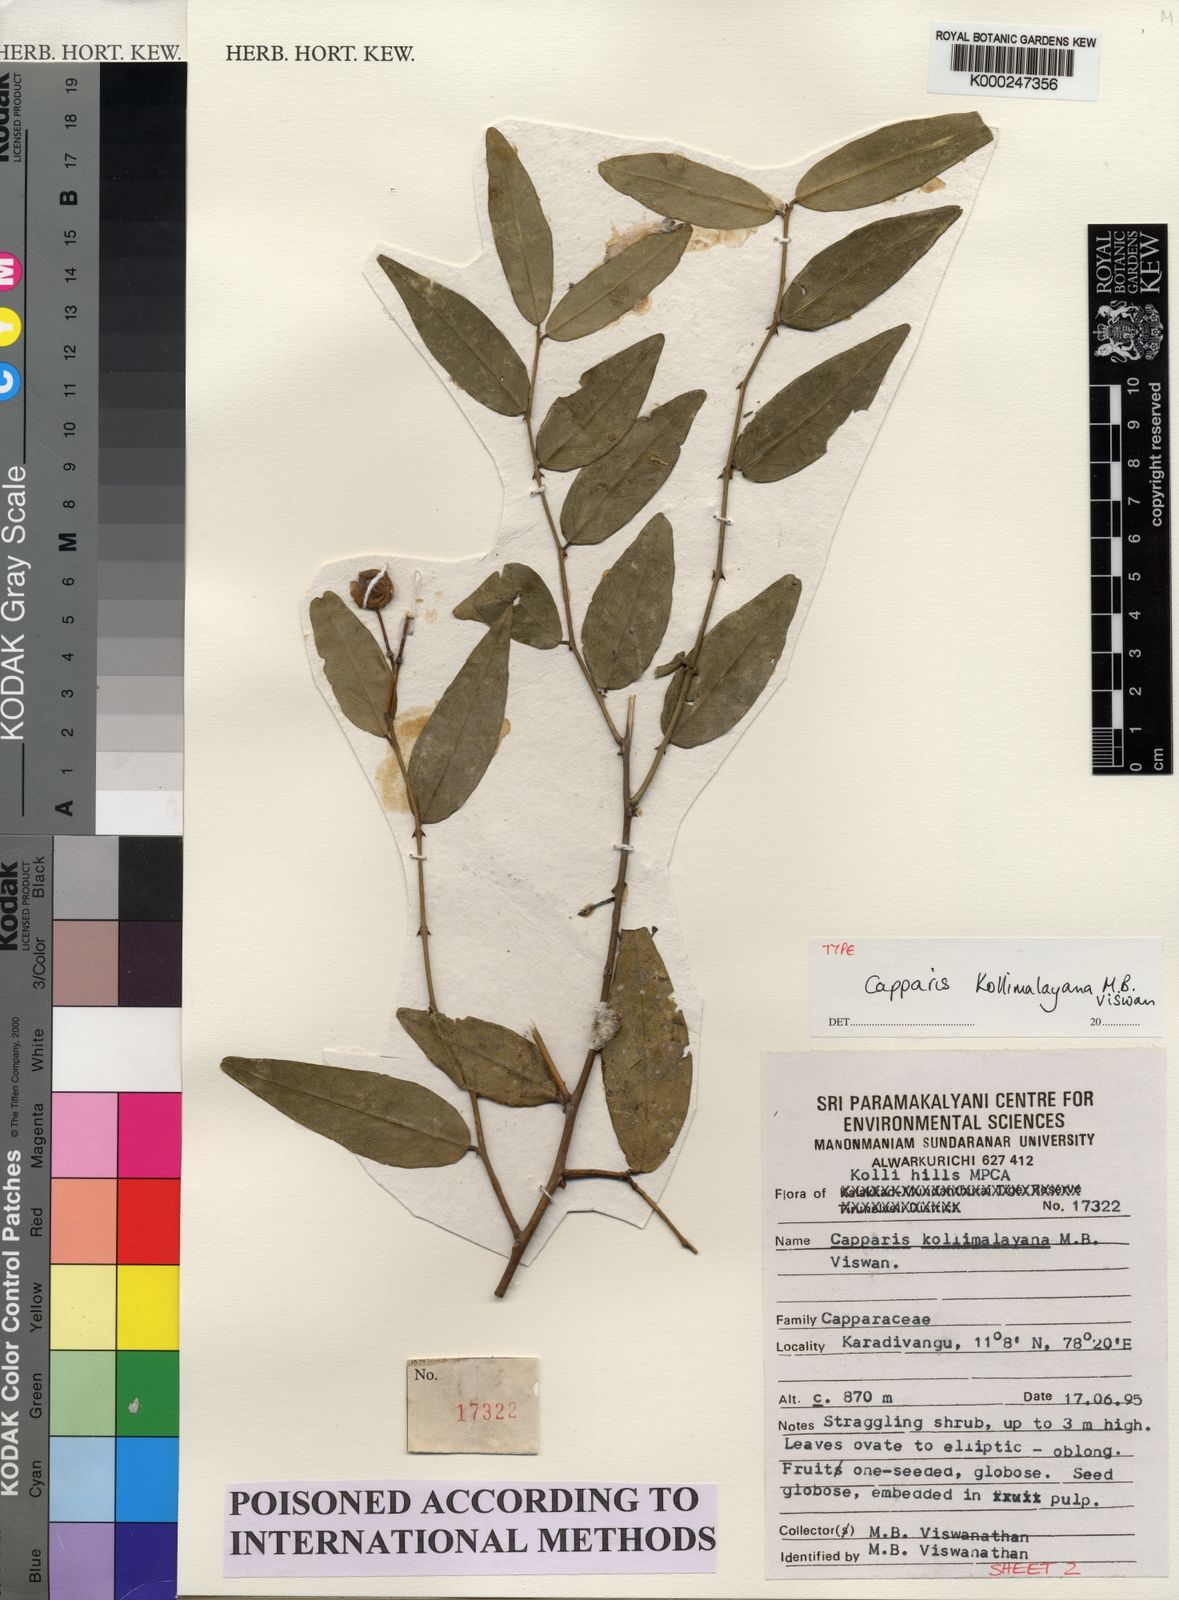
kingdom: Plantae
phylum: Tracheophyta
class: Magnoliopsida
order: Brassicales
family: Capparaceae
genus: Capparis
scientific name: Capparis kollimalayana
